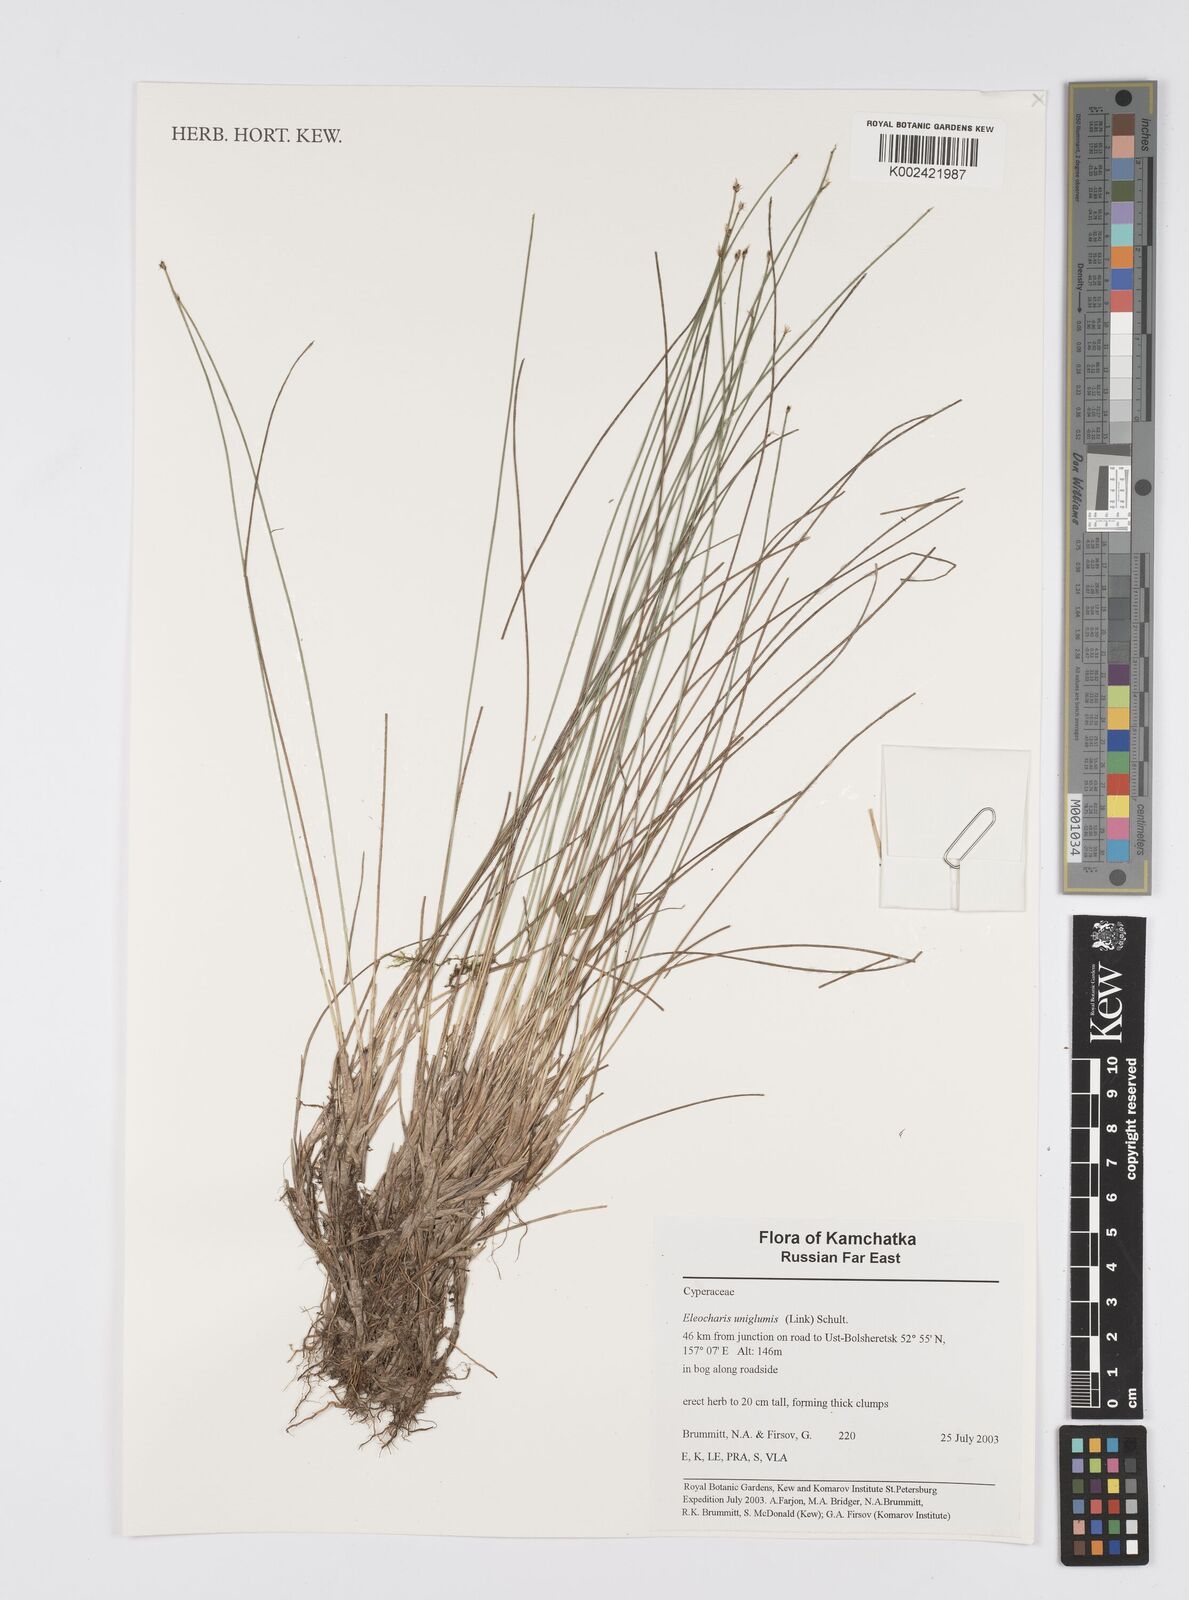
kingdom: Plantae
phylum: Tracheophyta
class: Liliopsida
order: Poales
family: Cyperaceae
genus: Eleocharis
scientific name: Eleocharis uniglumis
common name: Slender spike-rush
